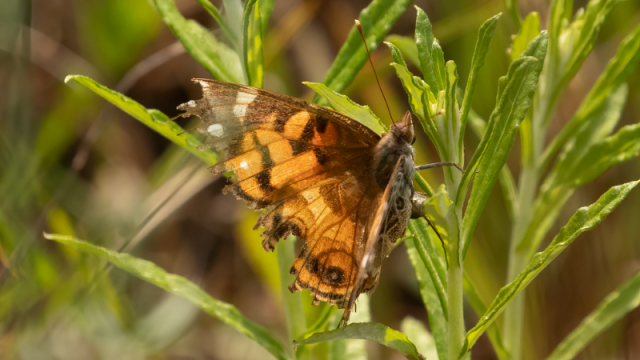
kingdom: Animalia
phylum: Arthropoda
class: Insecta
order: Lepidoptera
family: Nymphalidae
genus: Vanessa
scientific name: Vanessa virginiensis
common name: American Lady
